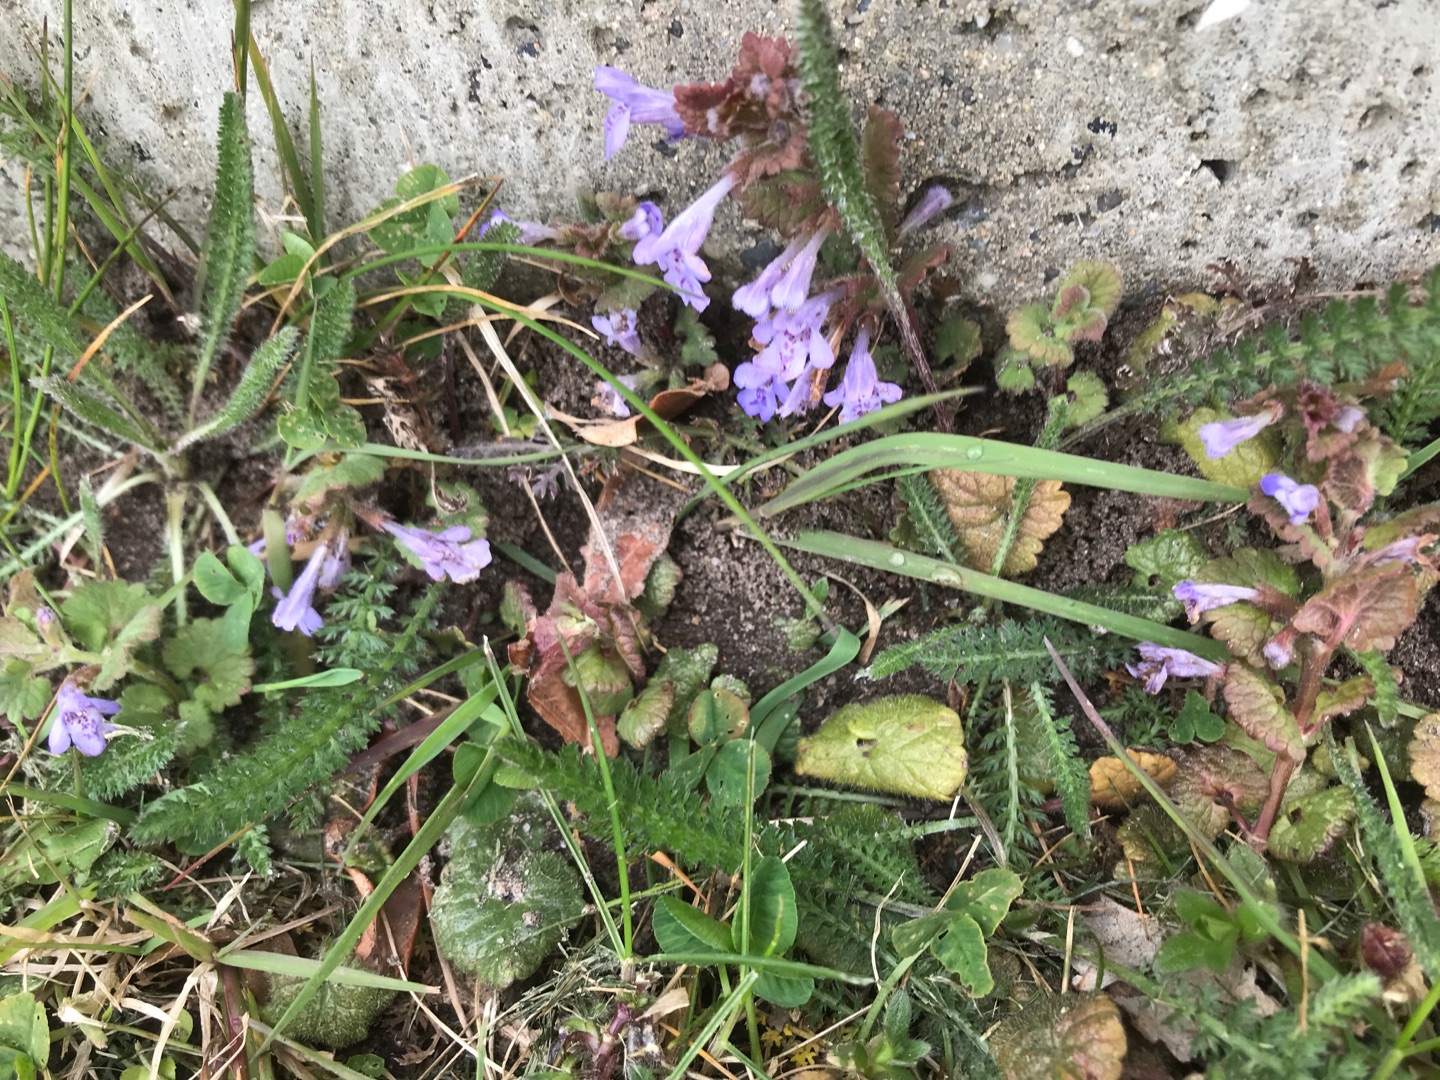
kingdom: Plantae
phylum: Tracheophyta
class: Magnoliopsida
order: Lamiales
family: Lamiaceae
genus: Glechoma
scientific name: Glechoma hederacea
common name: Korsknap
